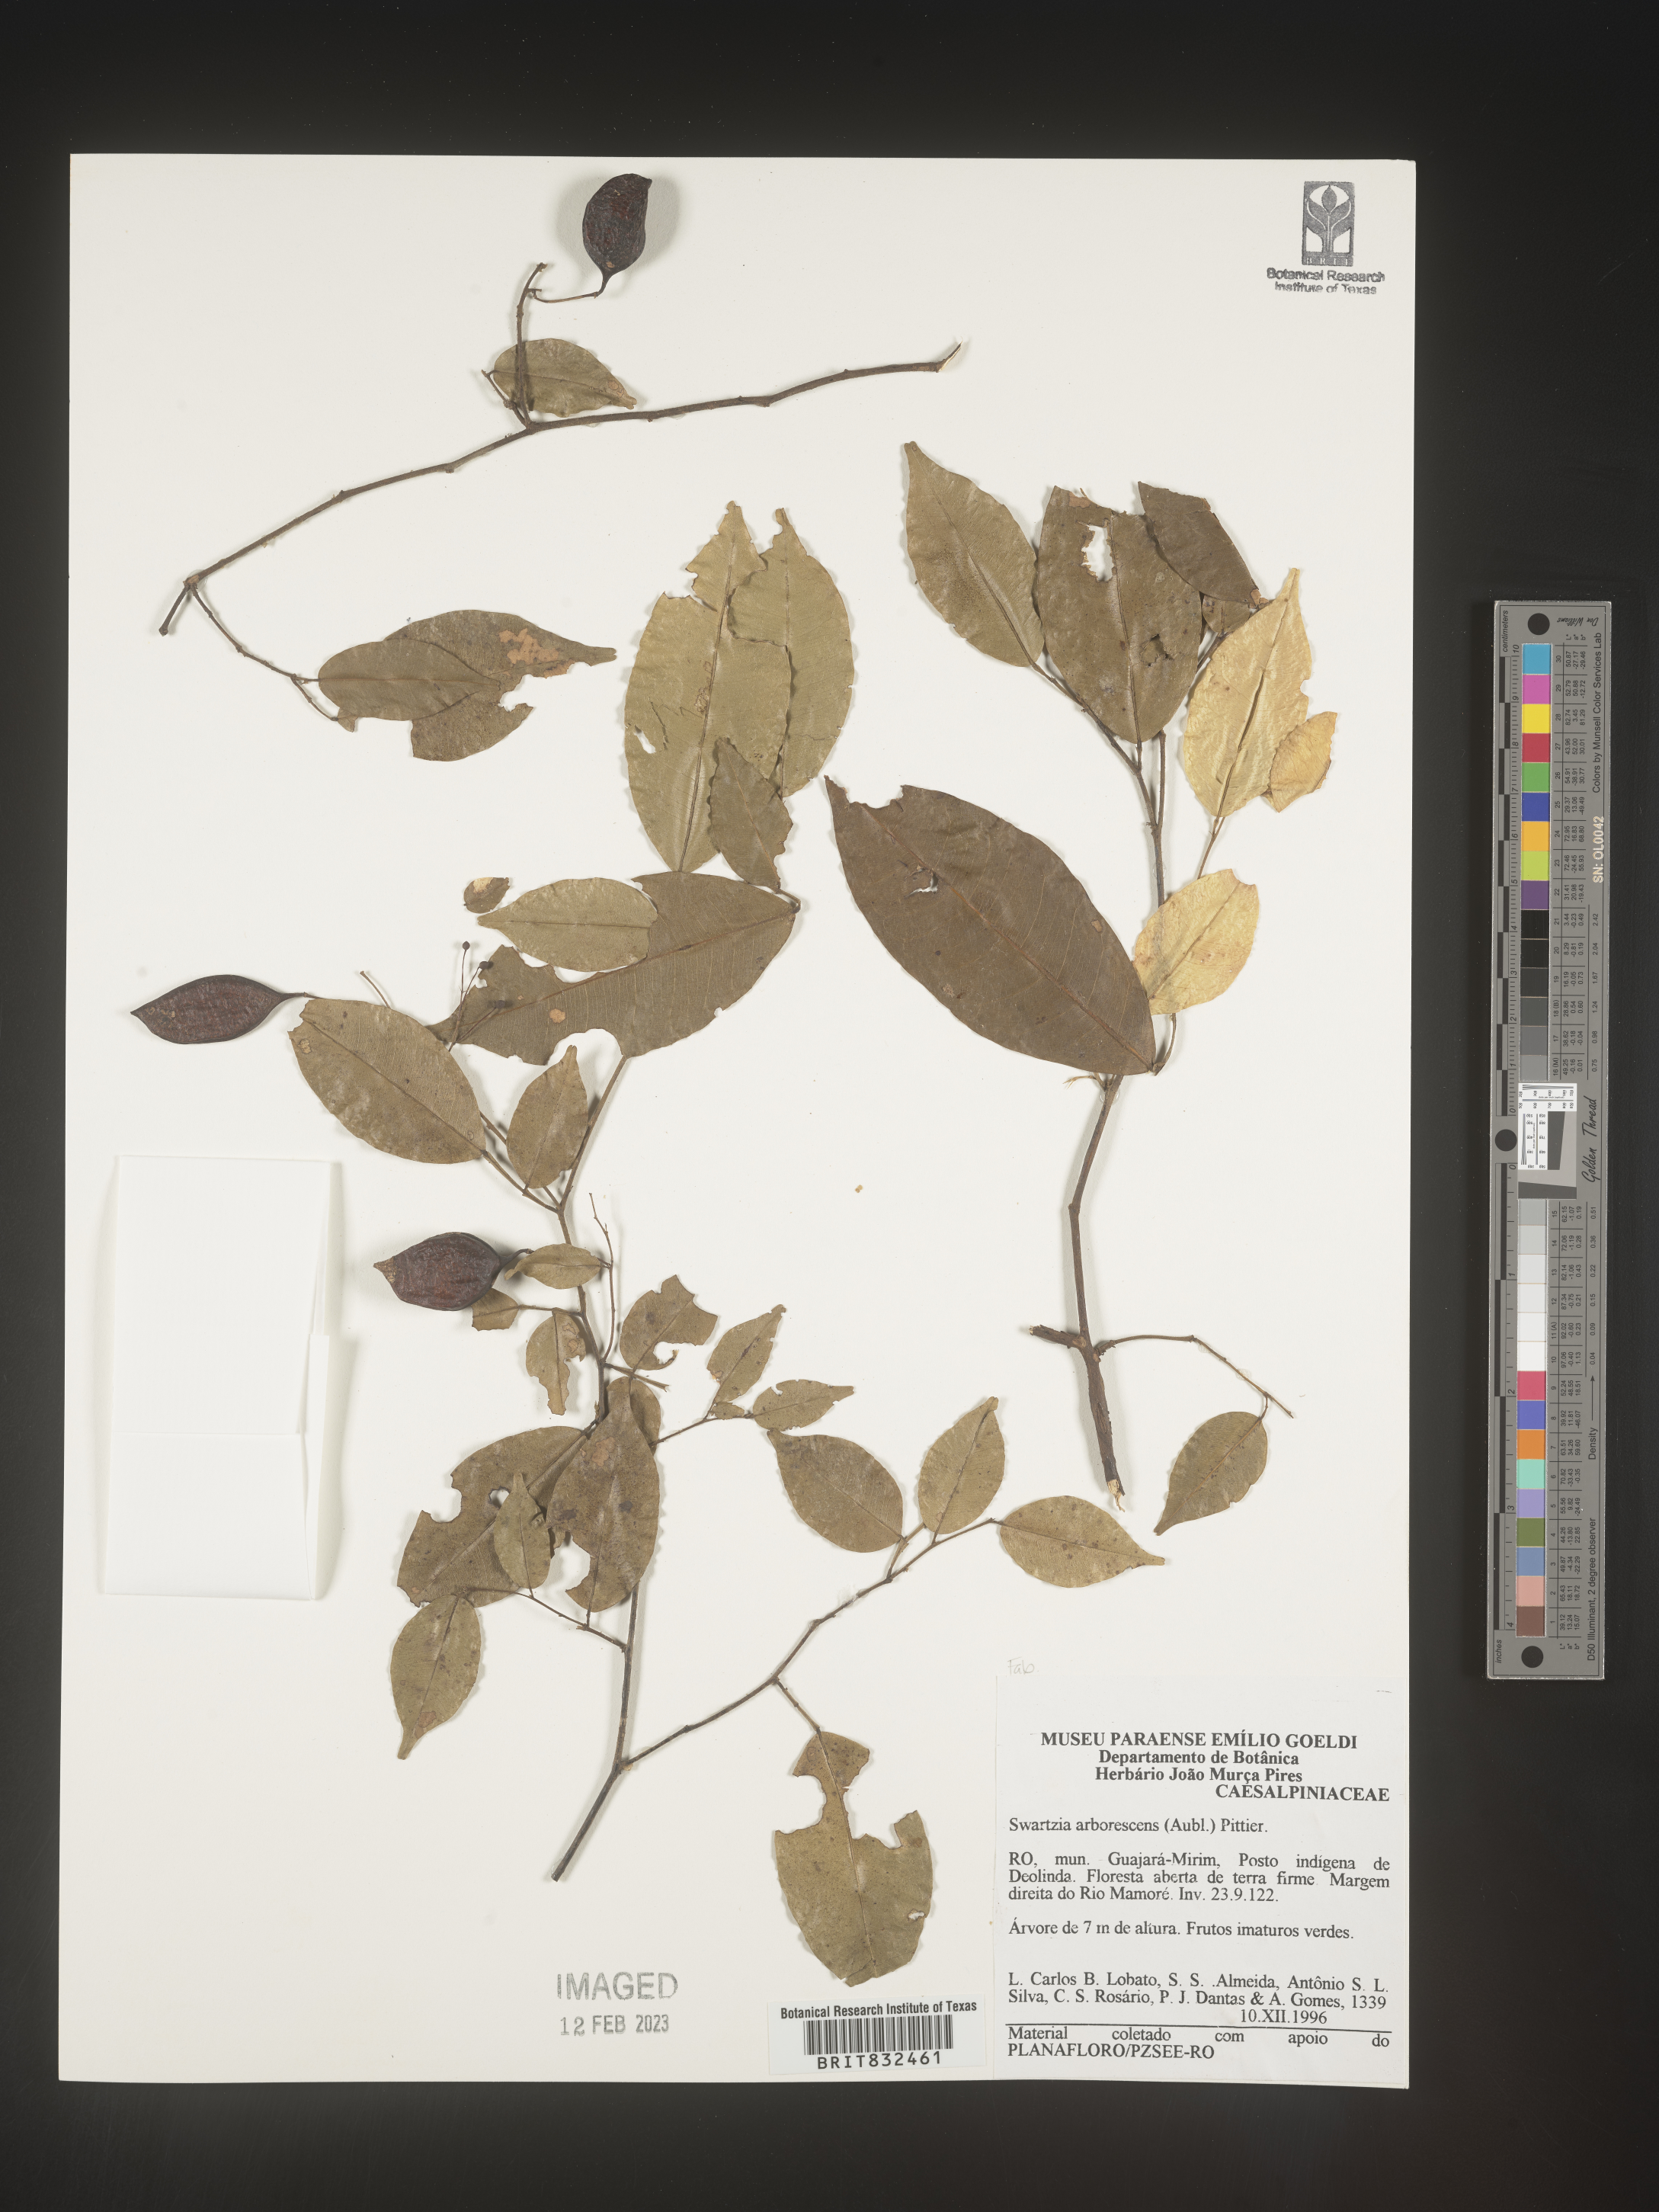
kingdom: Plantae
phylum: Tracheophyta
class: Magnoliopsida
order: Fabales
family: Fabaceae
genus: Swartzia
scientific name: Swartzia
